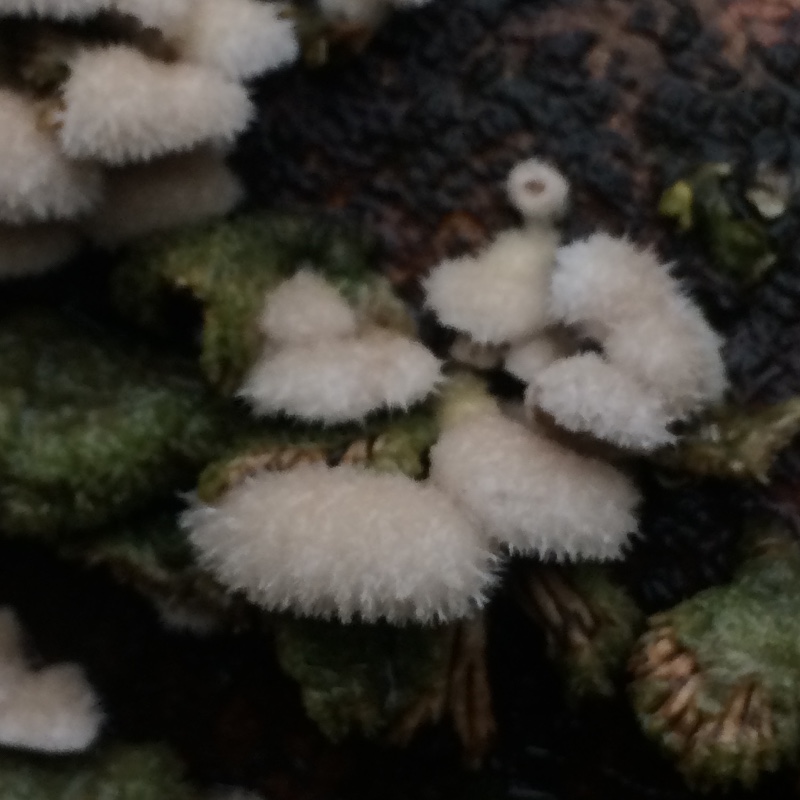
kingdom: Fungi
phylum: Basidiomycota
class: Agaricomycetes
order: Agaricales
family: Schizophyllaceae
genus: Schizophyllum
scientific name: Schizophyllum commune
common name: kløvblad
